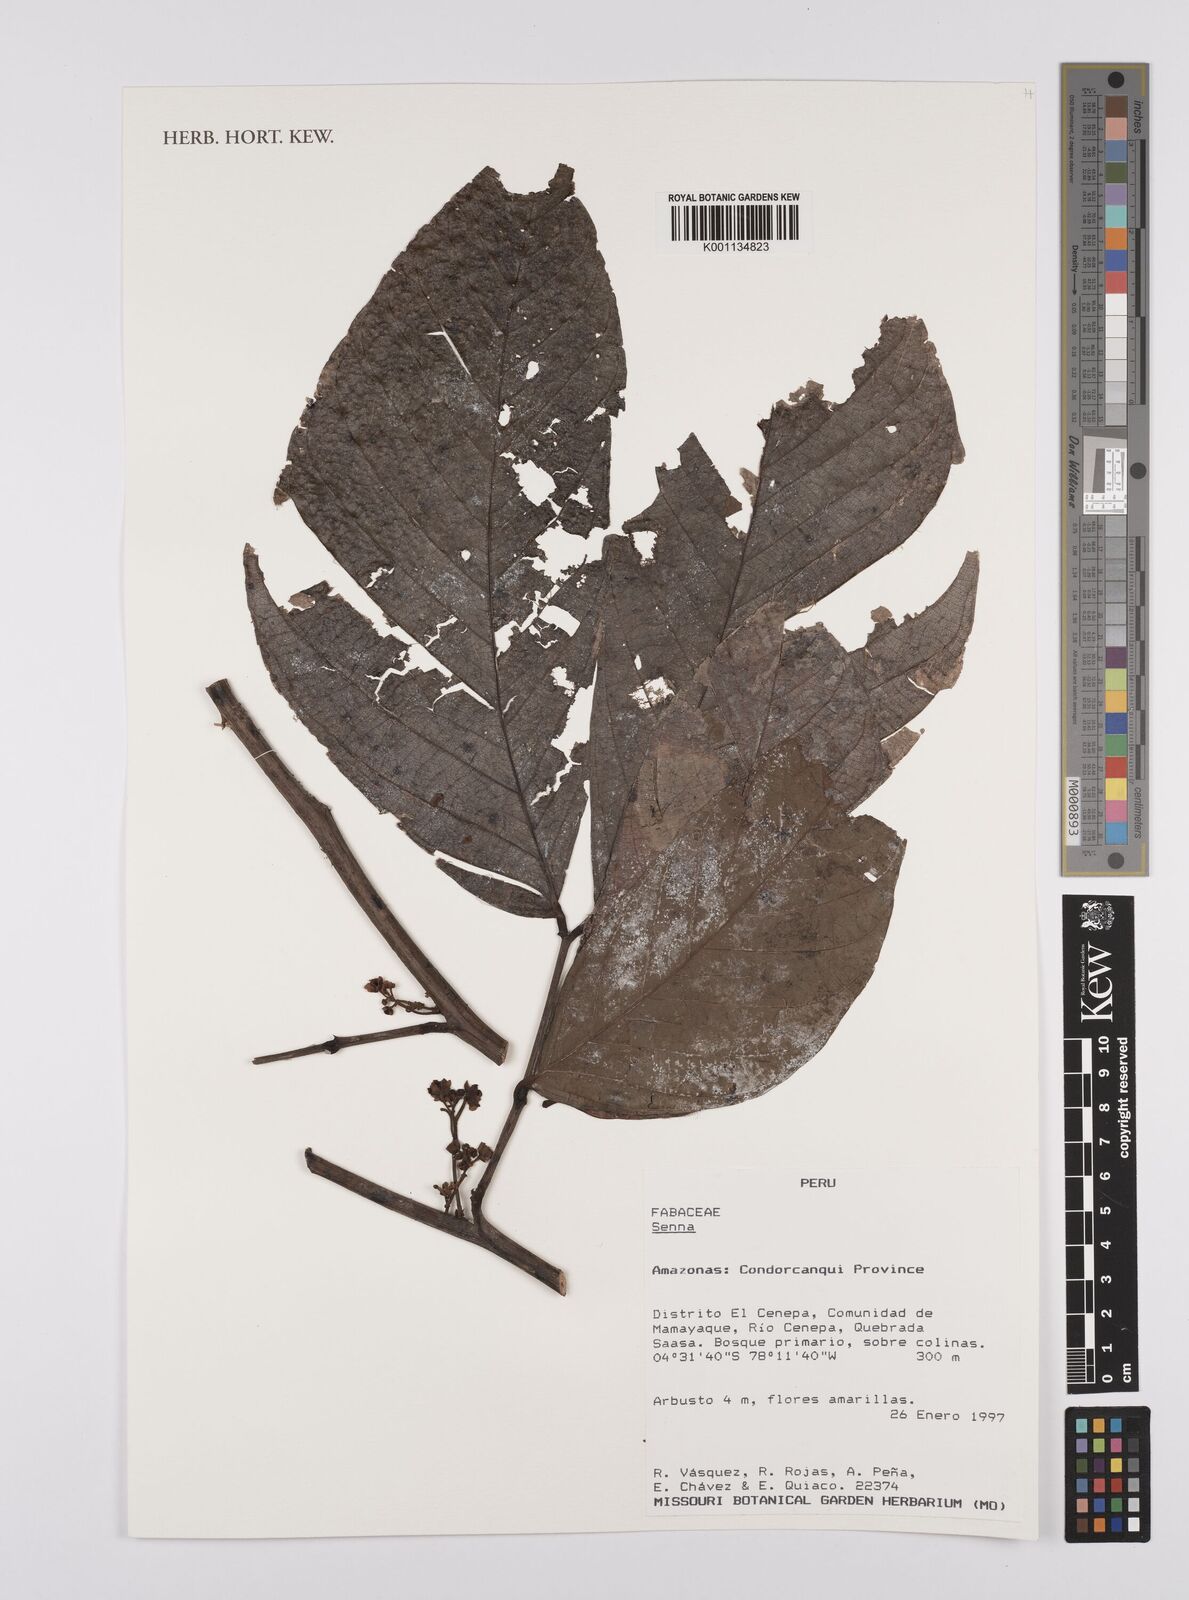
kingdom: Plantae
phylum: Tracheophyta
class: Magnoliopsida
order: Fabales
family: Fabaceae
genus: Senna
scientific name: Senna
